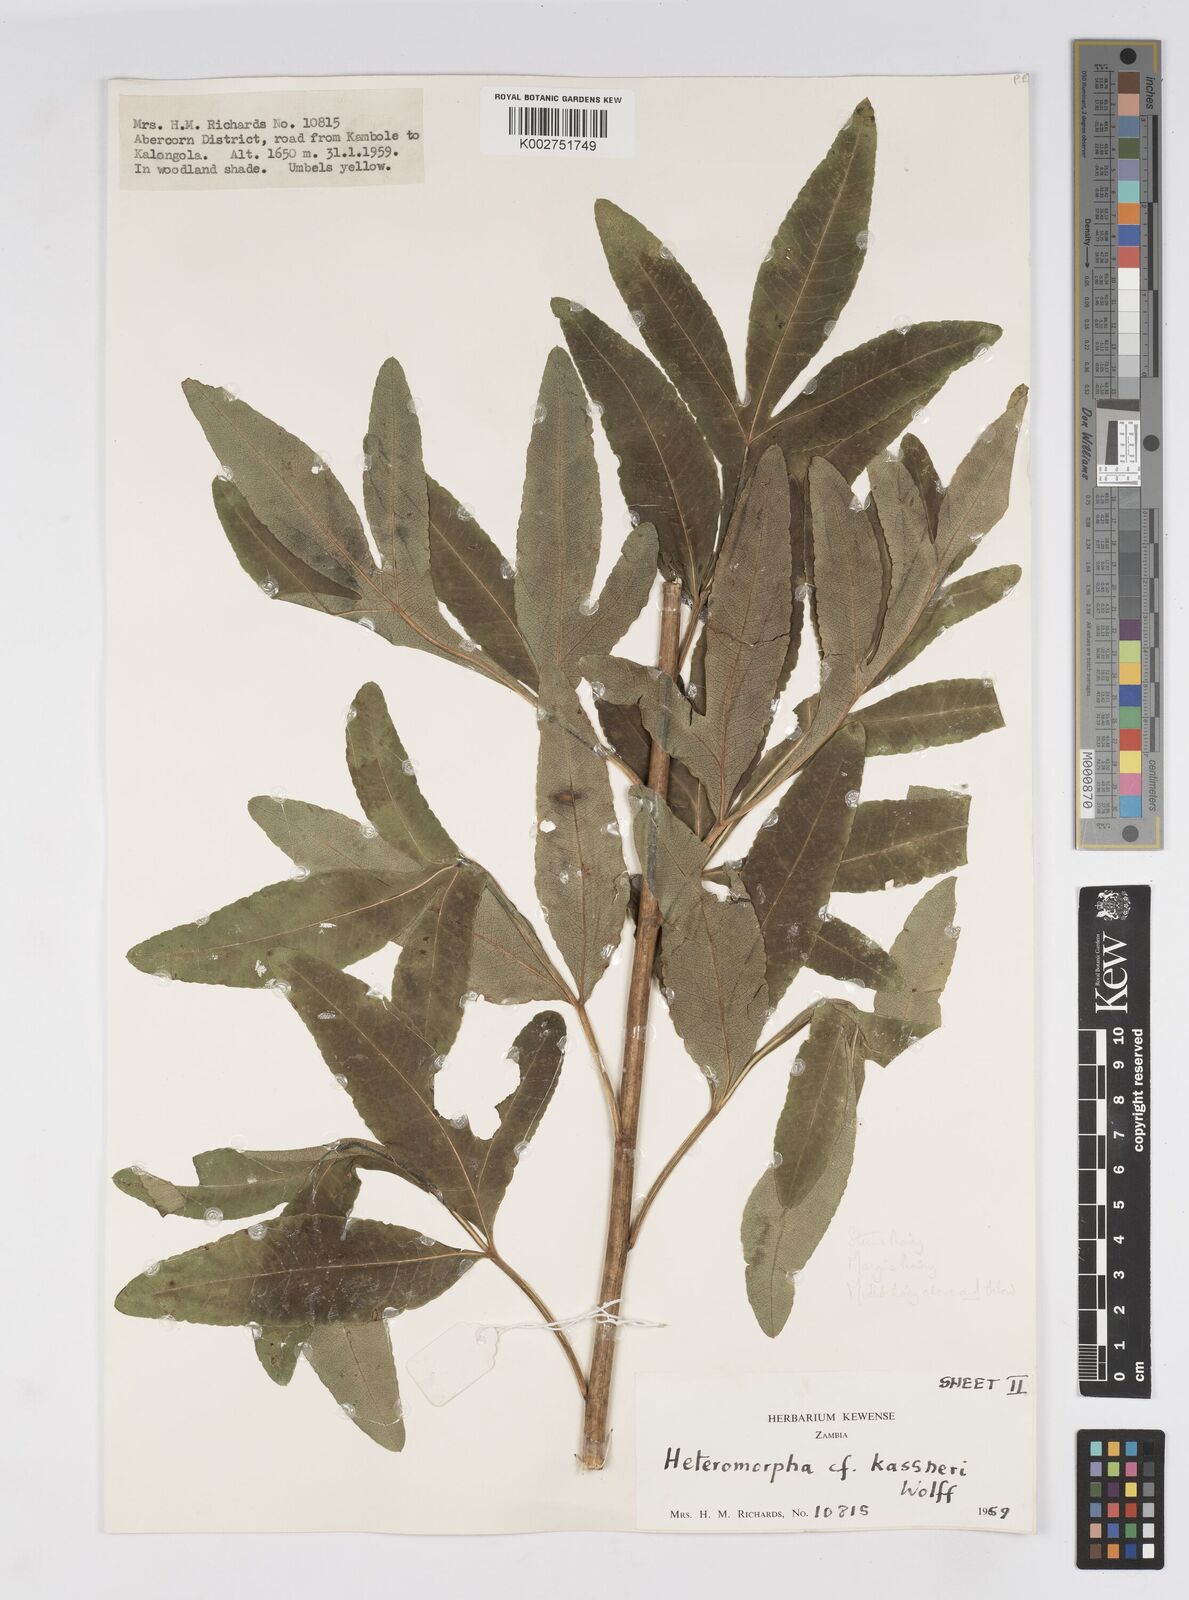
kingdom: Plantae
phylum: Tracheophyta
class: Magnoliopsida
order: Apiales
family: Apiaceae
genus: Heteromorpha
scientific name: Heteromorpha involucrata
